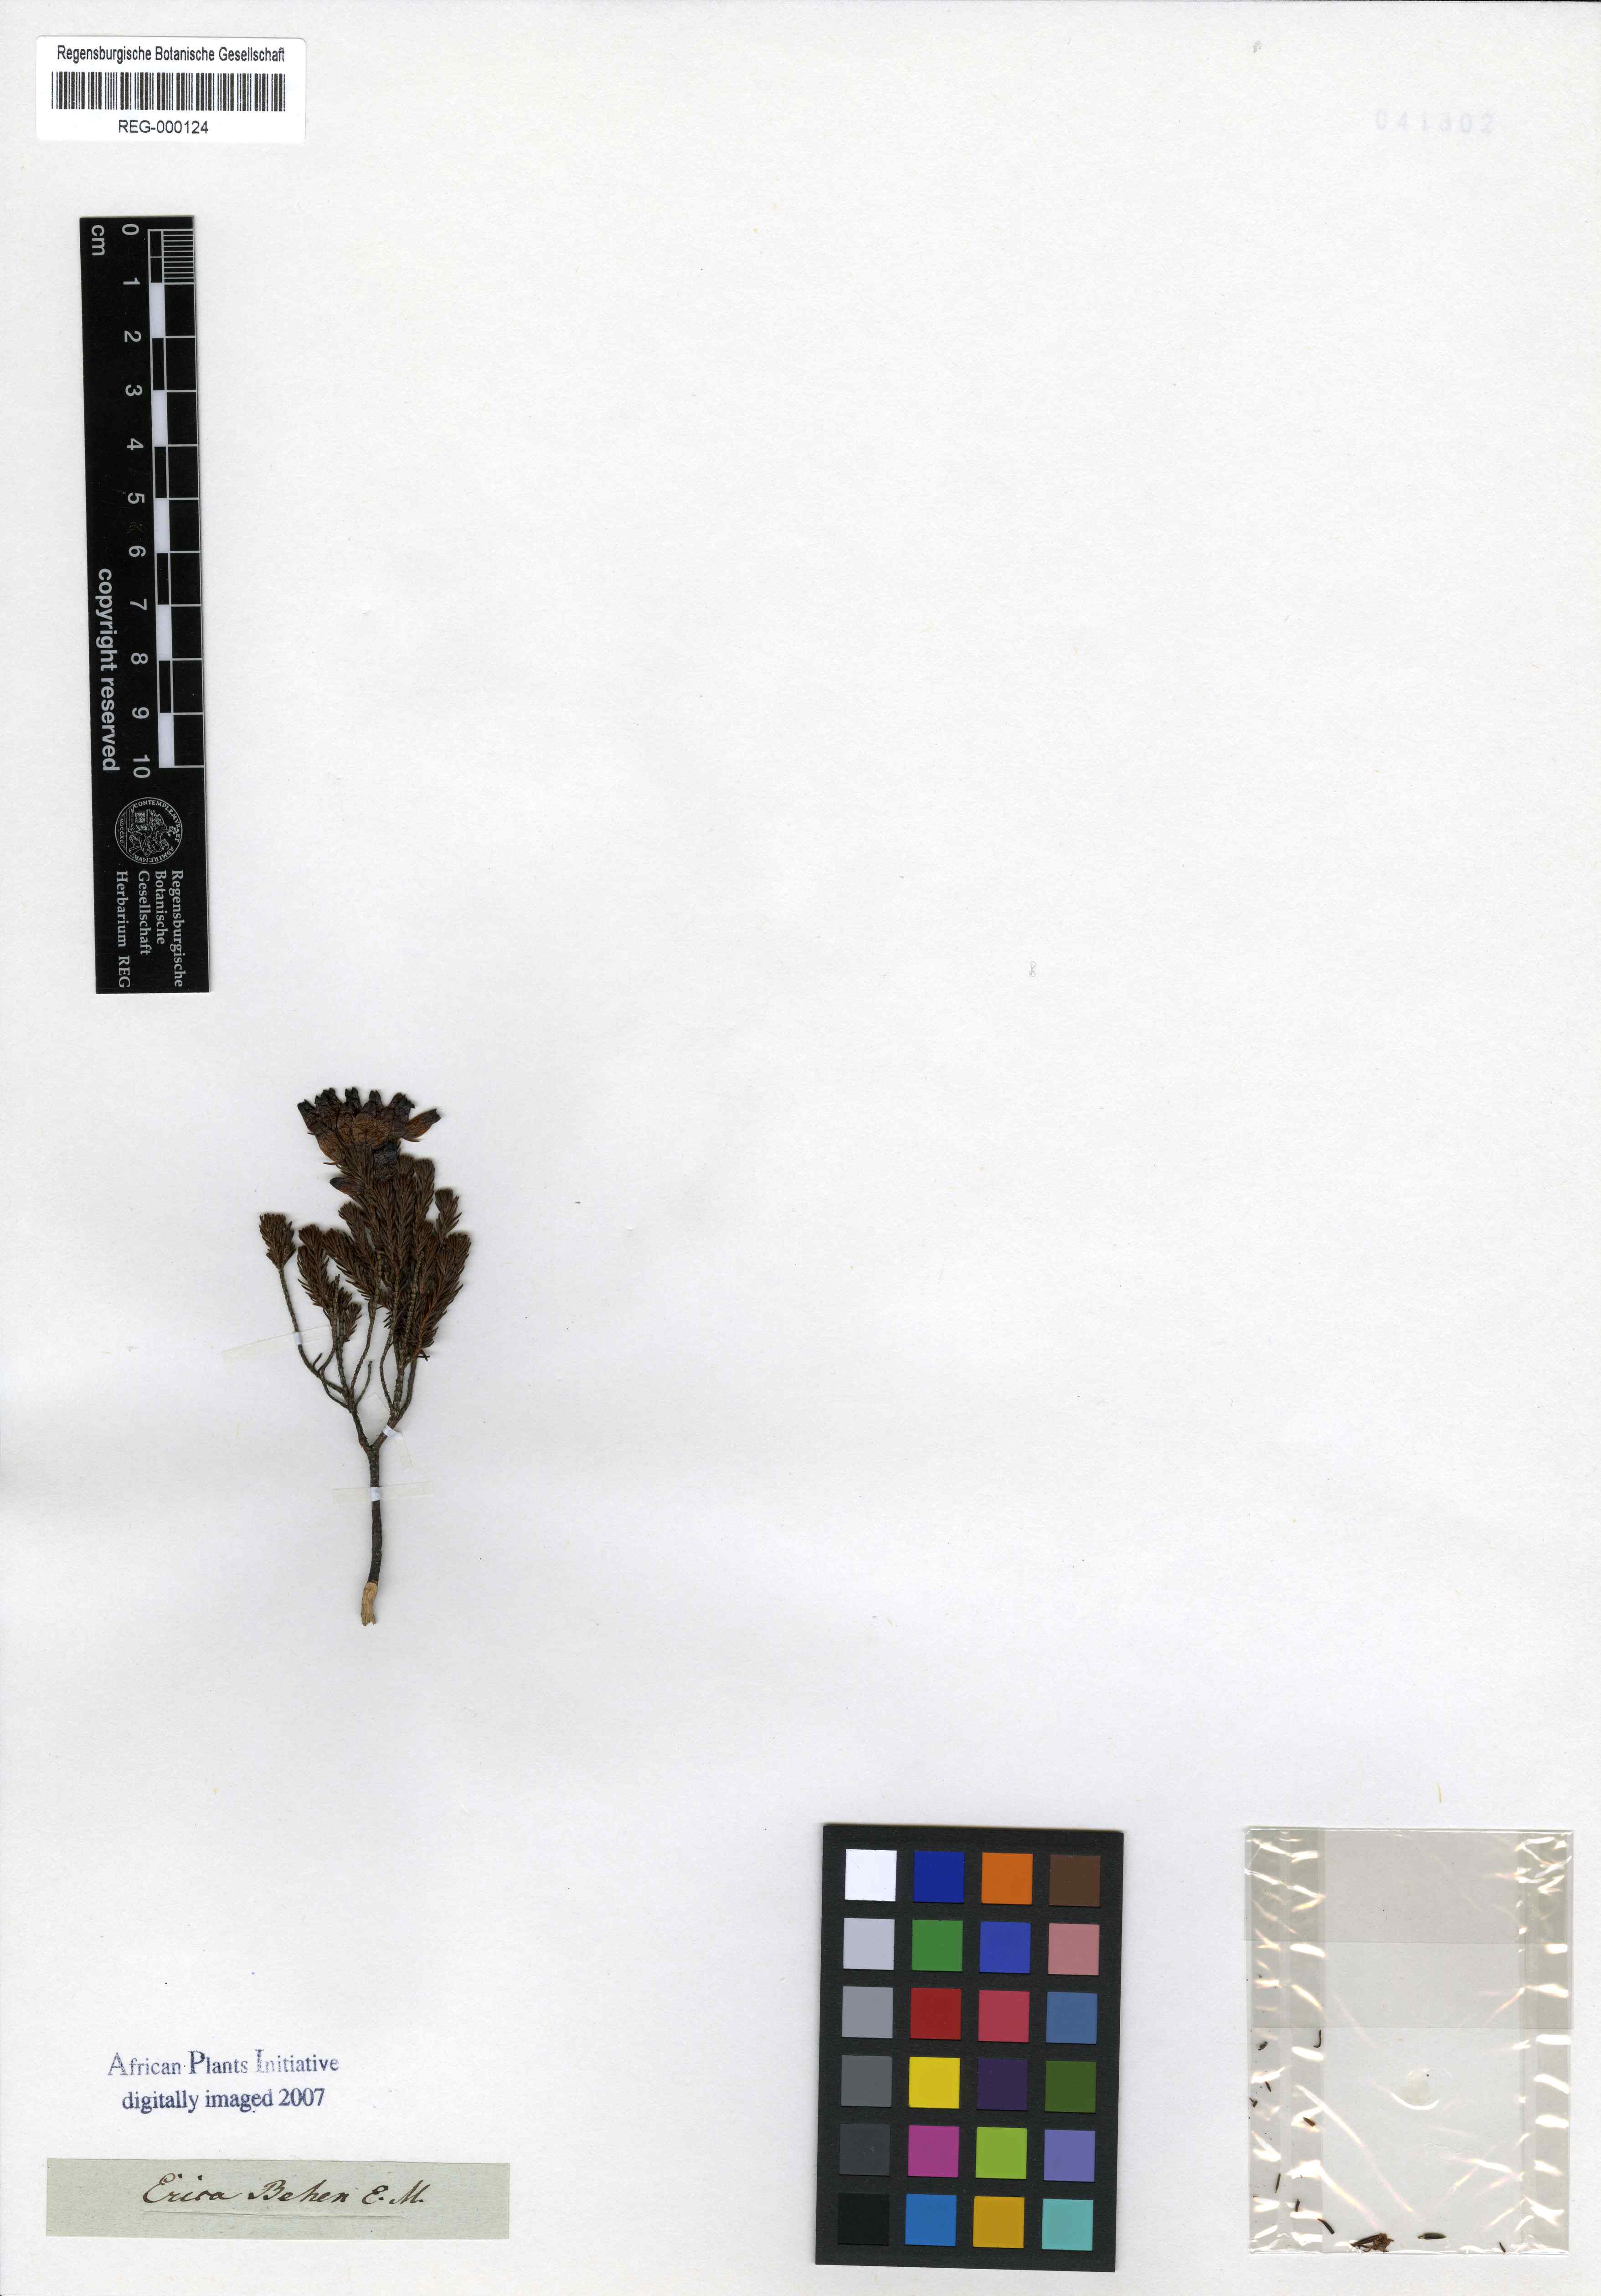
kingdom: Plantae
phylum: Tracheophyta
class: Magnoliopsida
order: Ericales
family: Ericaceae
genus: Erica
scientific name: Erica ventricosa
